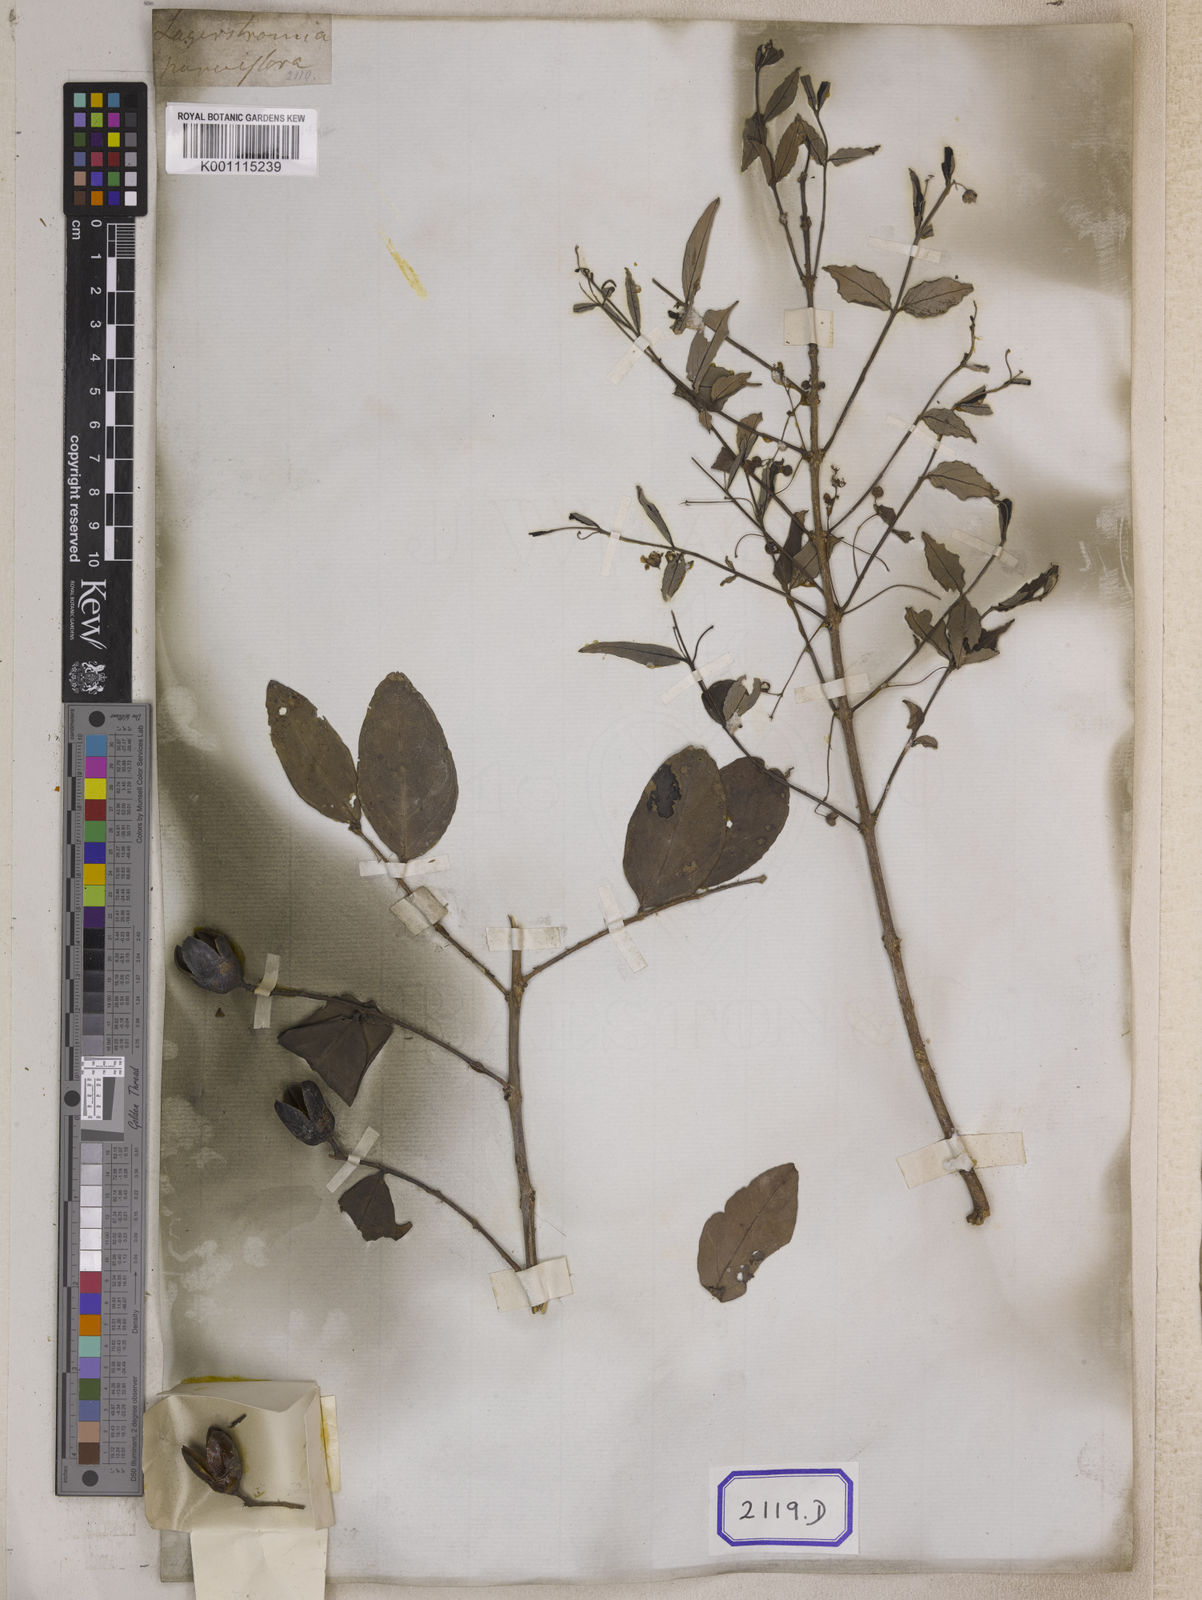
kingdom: Plantae
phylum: Tracheophyta
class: Magnoliopsida
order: Myrtales
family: Lythraceae
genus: Lagerstroemia
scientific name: Lagerstroemia parviflora
